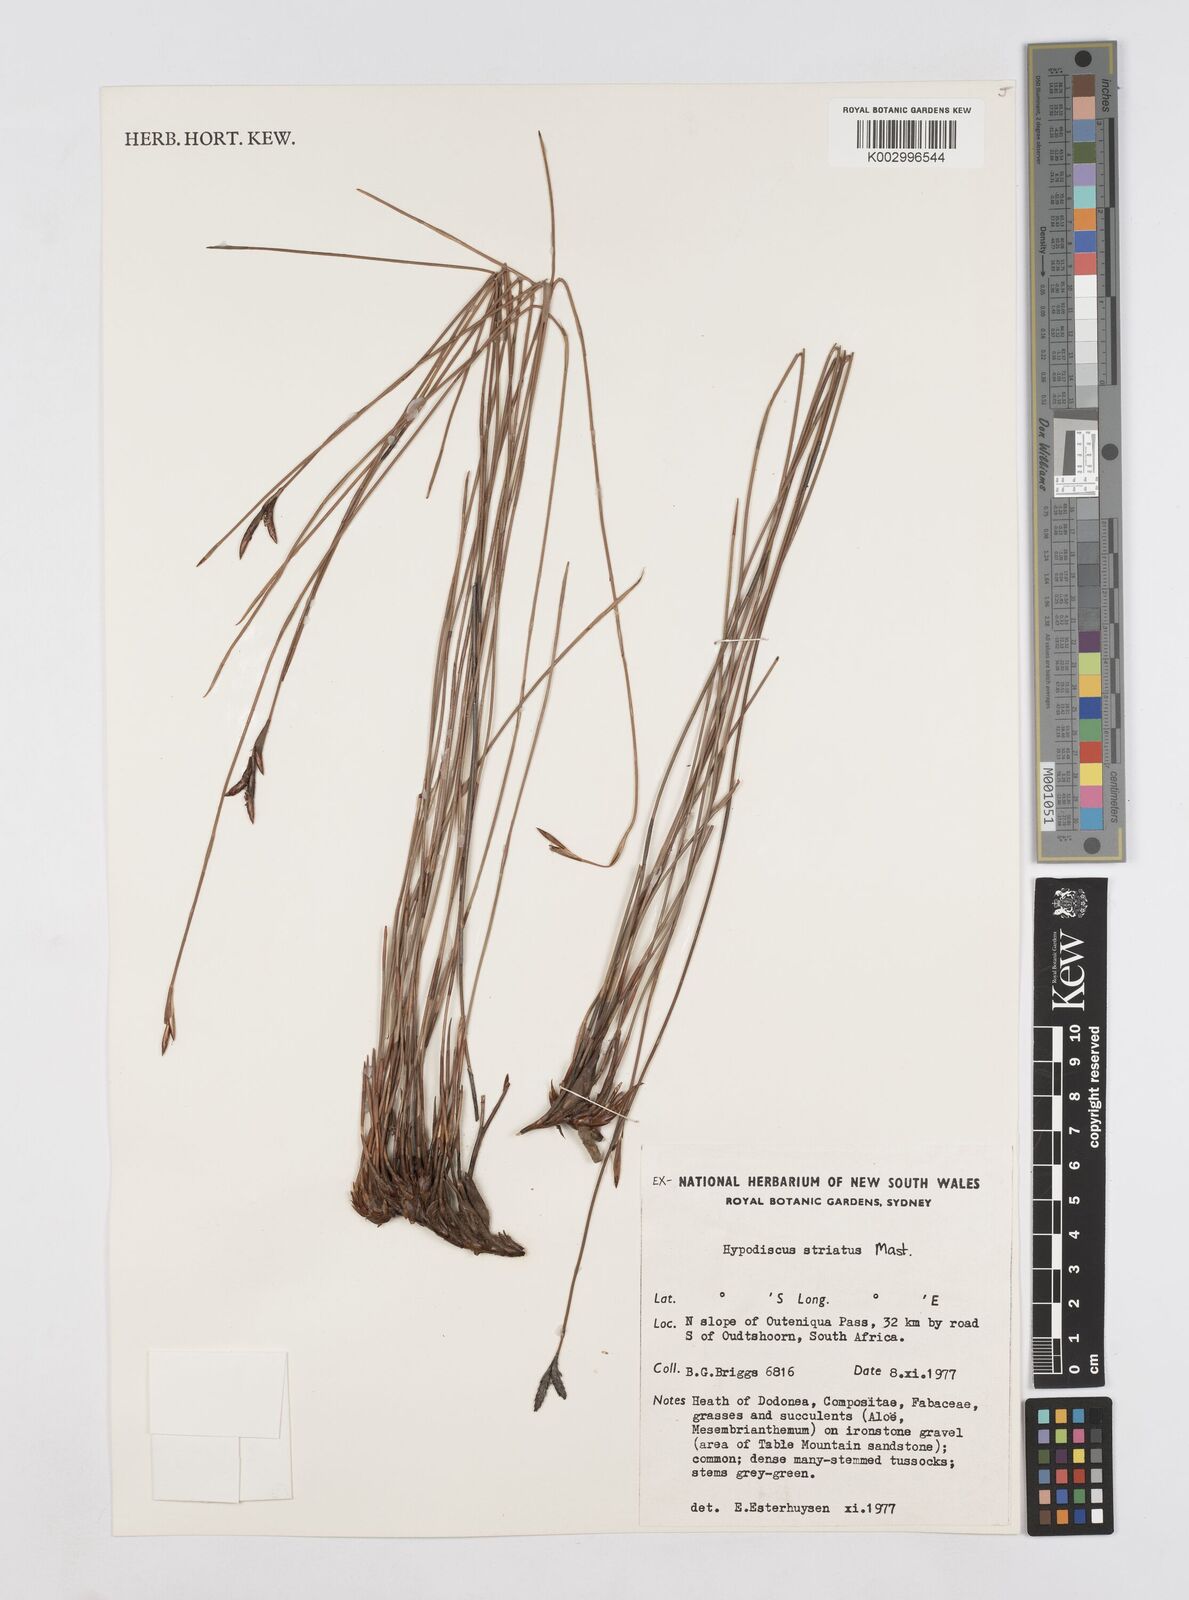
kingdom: Plantae
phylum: Tracheophyta
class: Liliopsida
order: Poales
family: Restionaceae
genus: Hypodiscus
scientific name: Hypodiscus striatus
